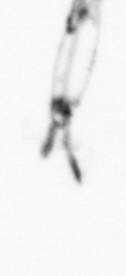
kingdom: Animalia
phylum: Arthropoda
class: Copepoda
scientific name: Copepoda
